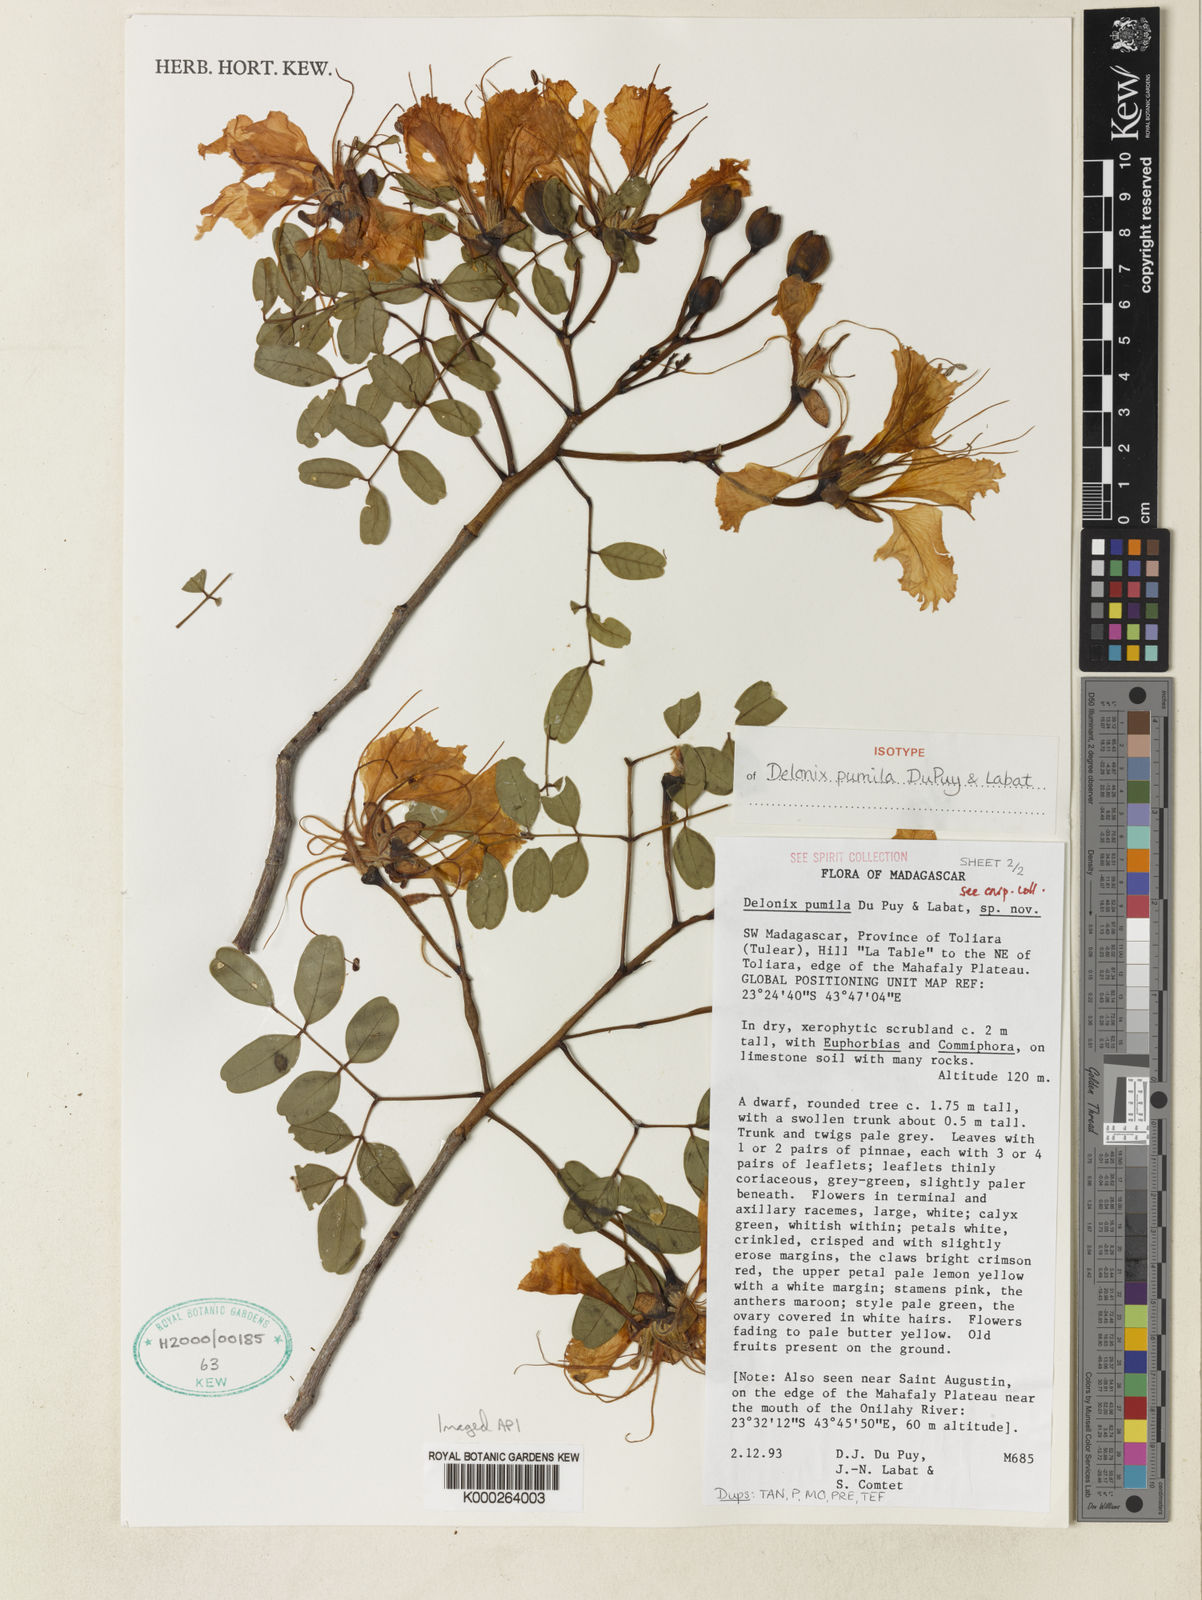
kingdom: Plantae
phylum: Tracheophyta
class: Magnoliopsida
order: Fabales
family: Fabaceae
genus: Delonix
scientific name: Delonix pumila
